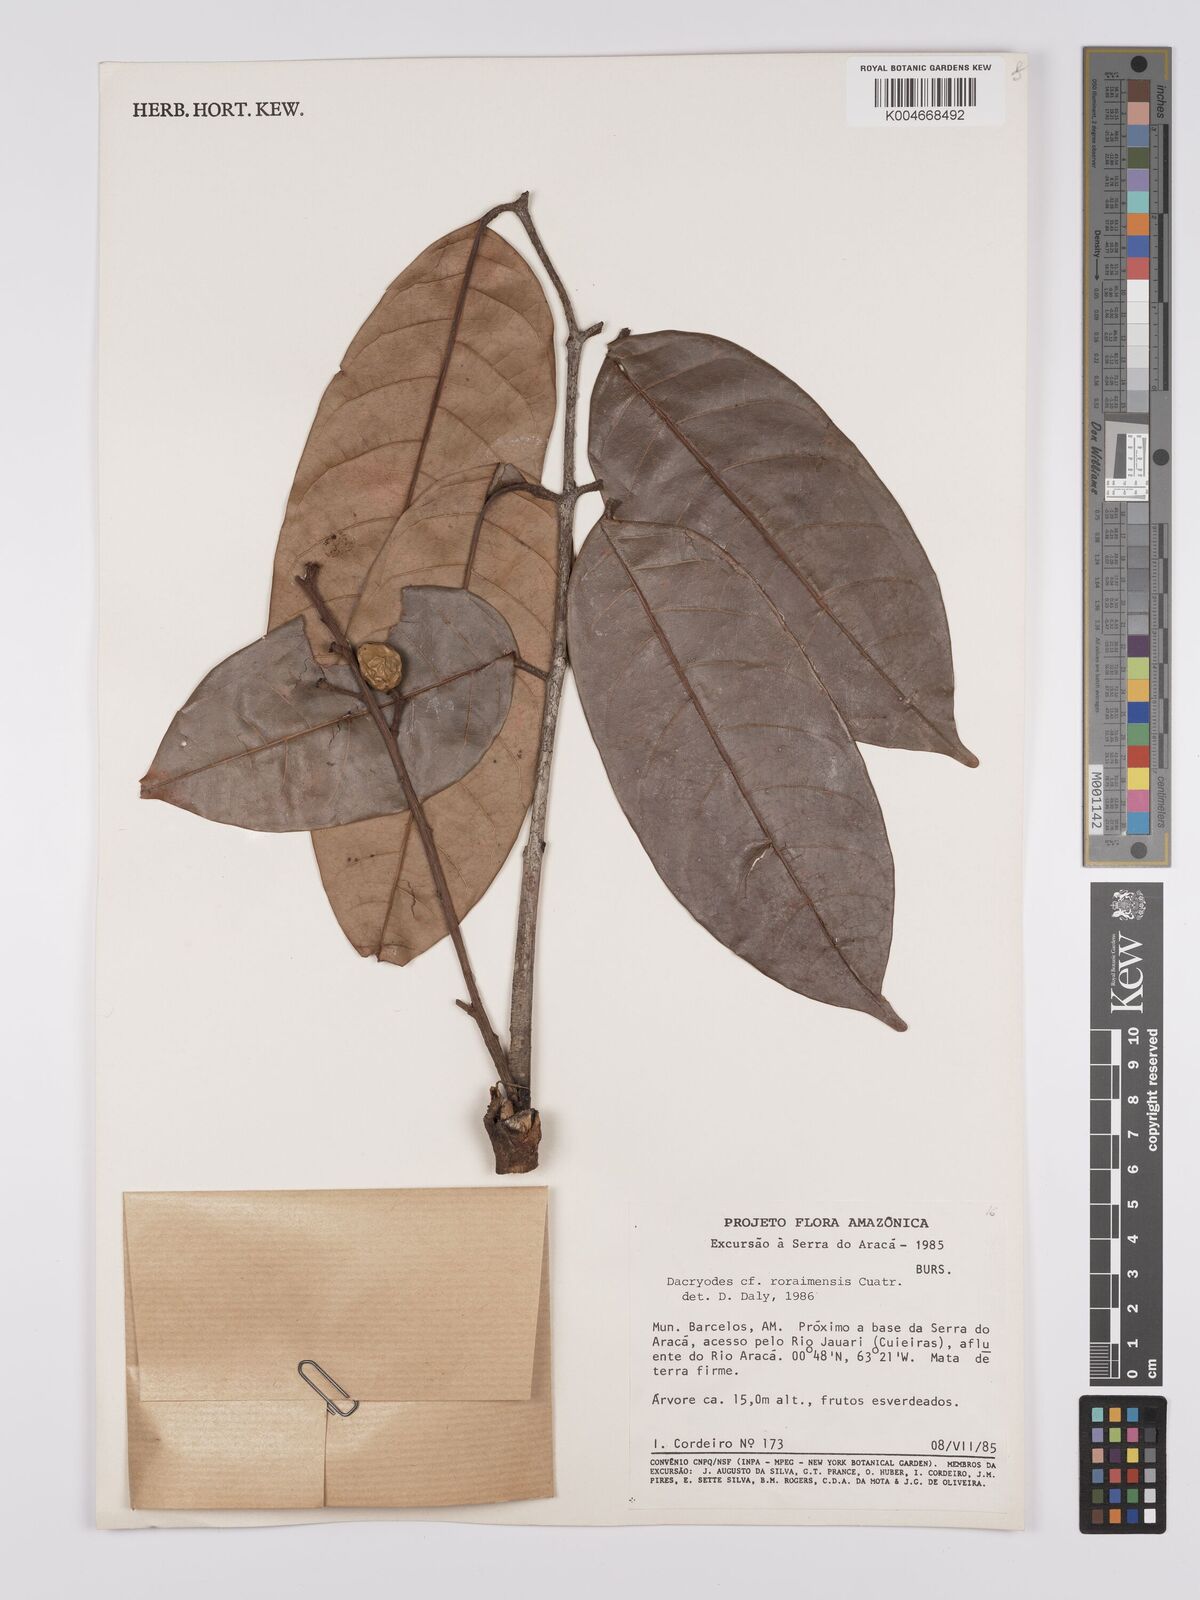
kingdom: Plantae
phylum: Tracheophyta
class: Magnoliopsida
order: Sapindales
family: Burseraceae
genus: Dacryodes
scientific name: Dacryodes roraimensis
